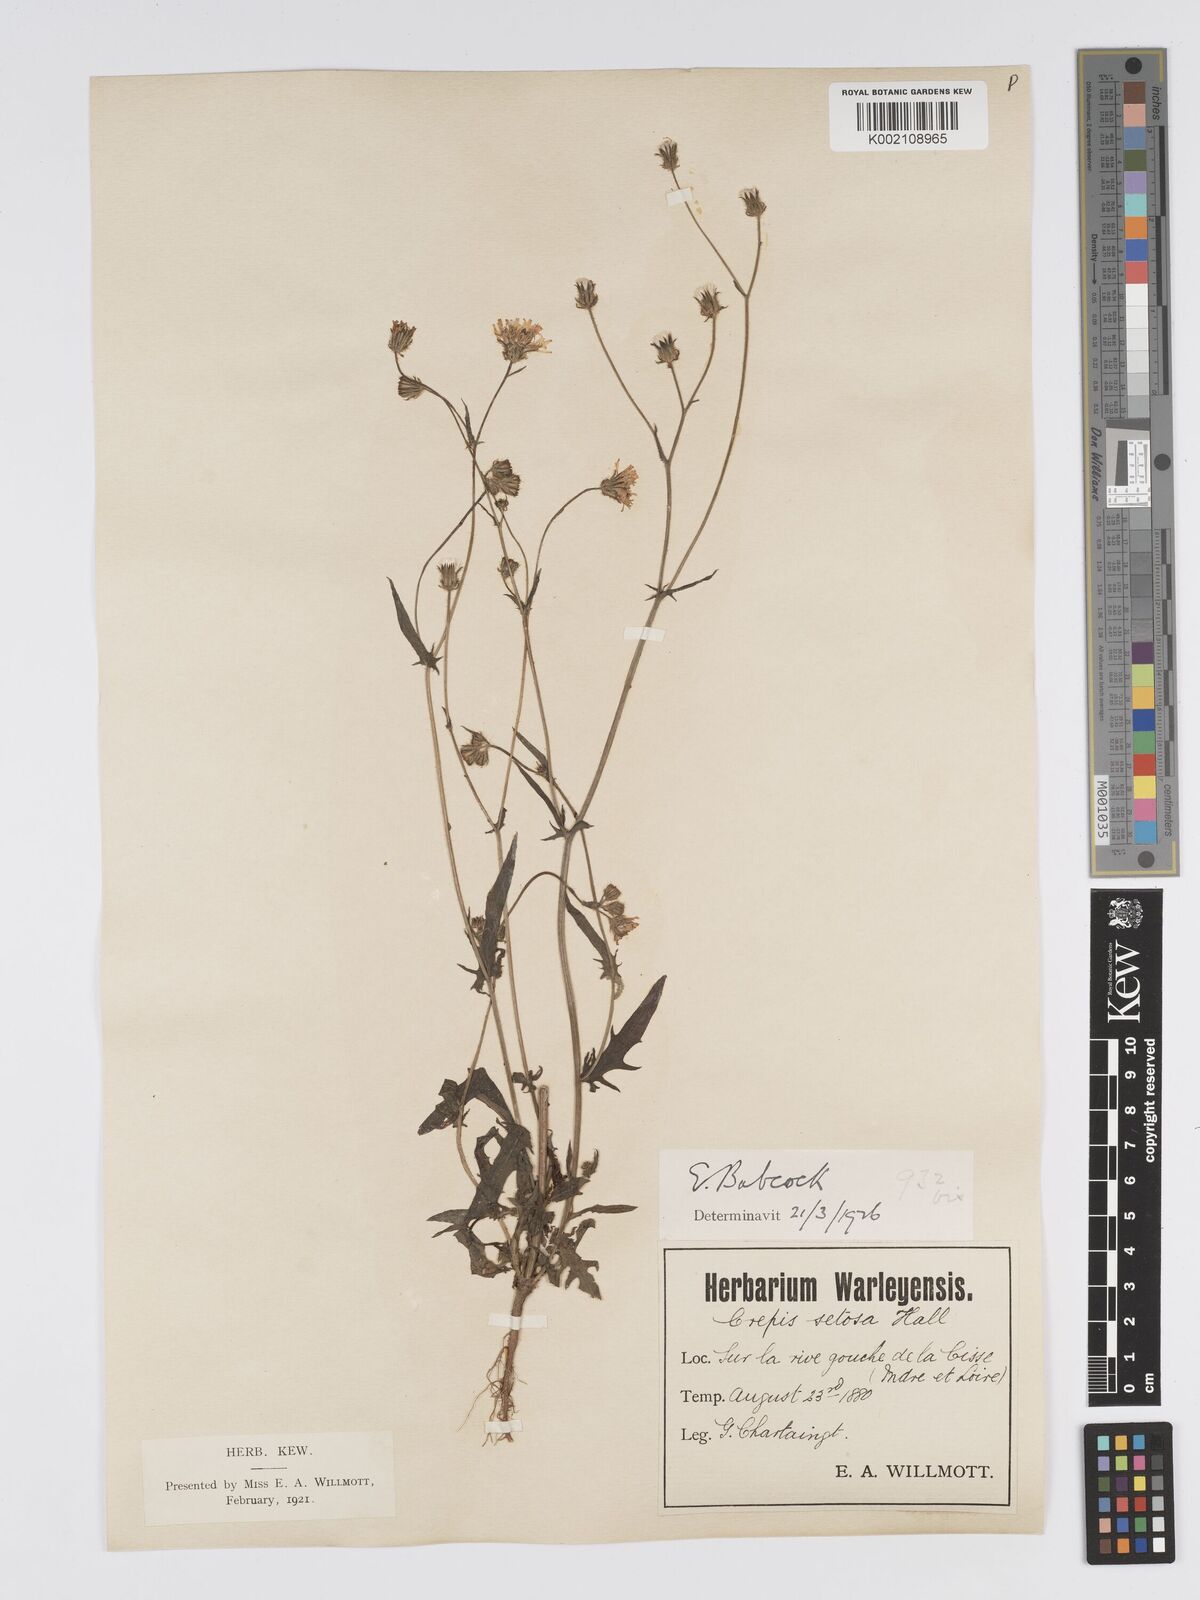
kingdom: Plantae
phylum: Tracheophyta
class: Magnoliopsida
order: Asterales
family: Asteraceae
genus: Crepis
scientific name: Crepis setosa
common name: Bristly hawk's-beard
